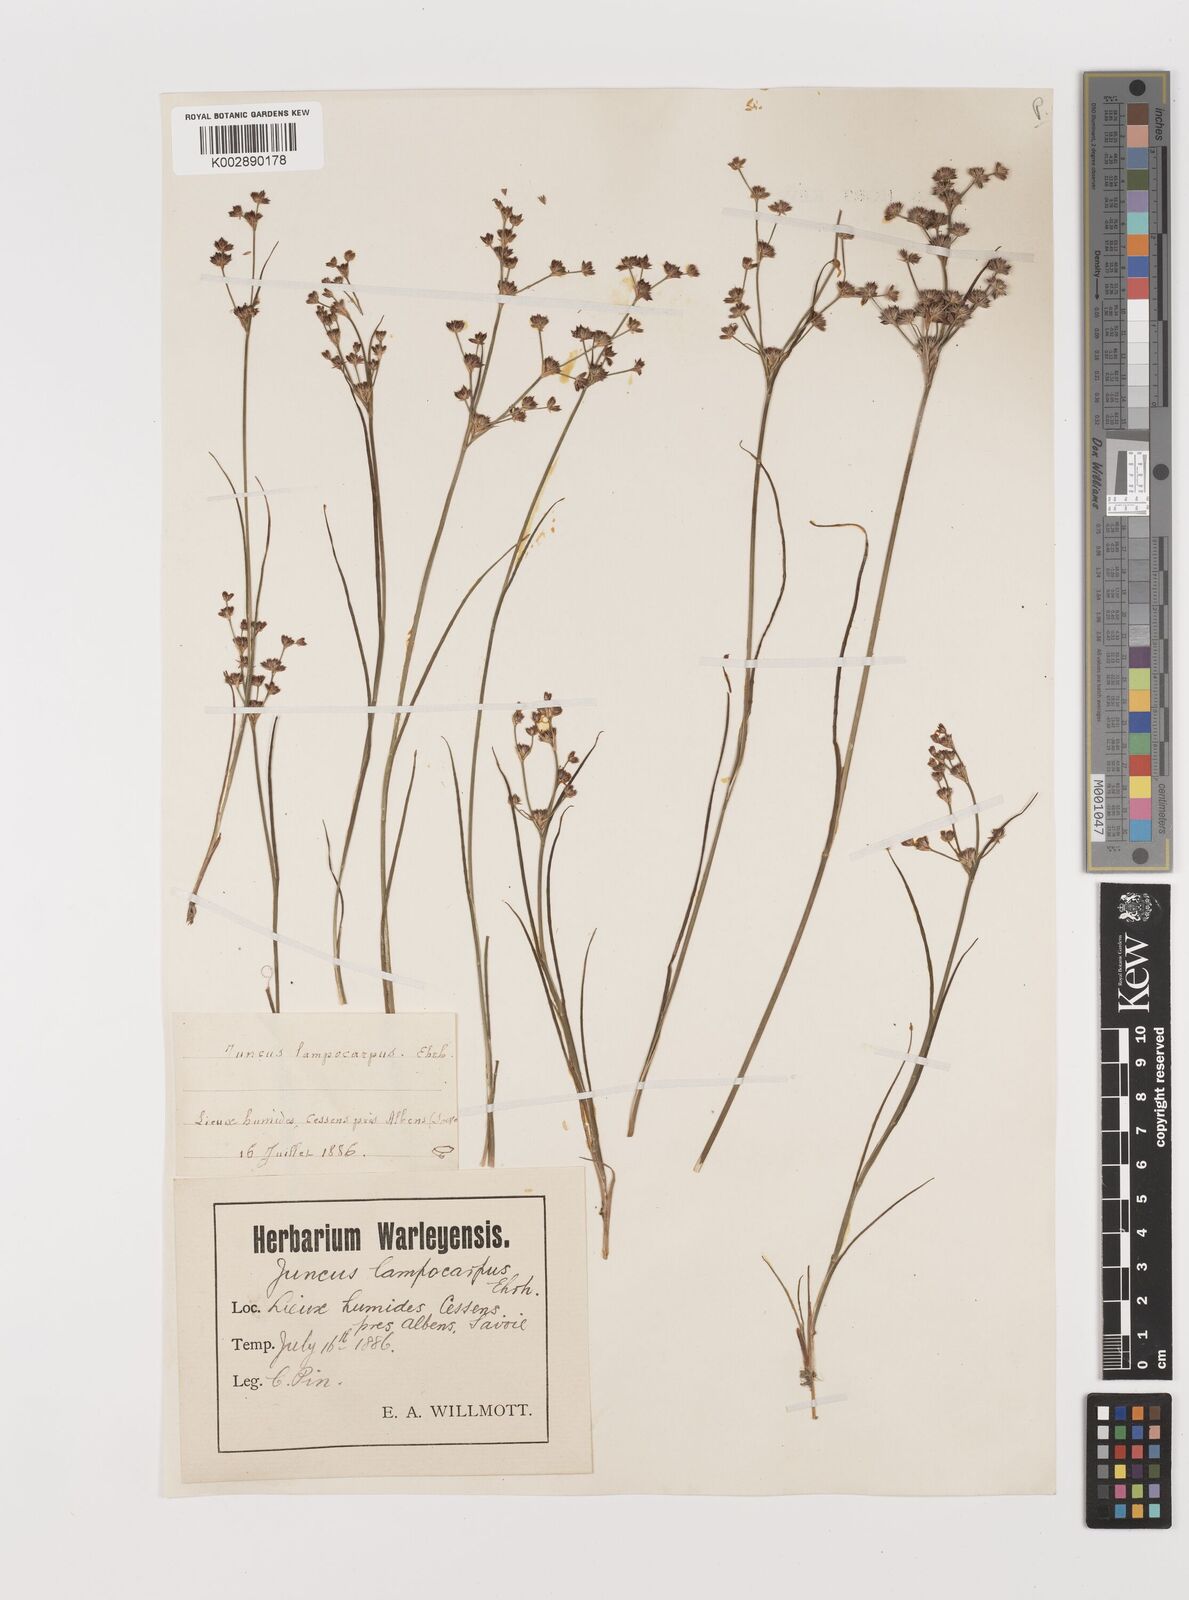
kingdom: Plantae
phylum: Tracheophyta
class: Liliopsida
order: Poales
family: Juncaceae
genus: Juncus
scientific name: Juncus articulatus
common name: Jointed rush
